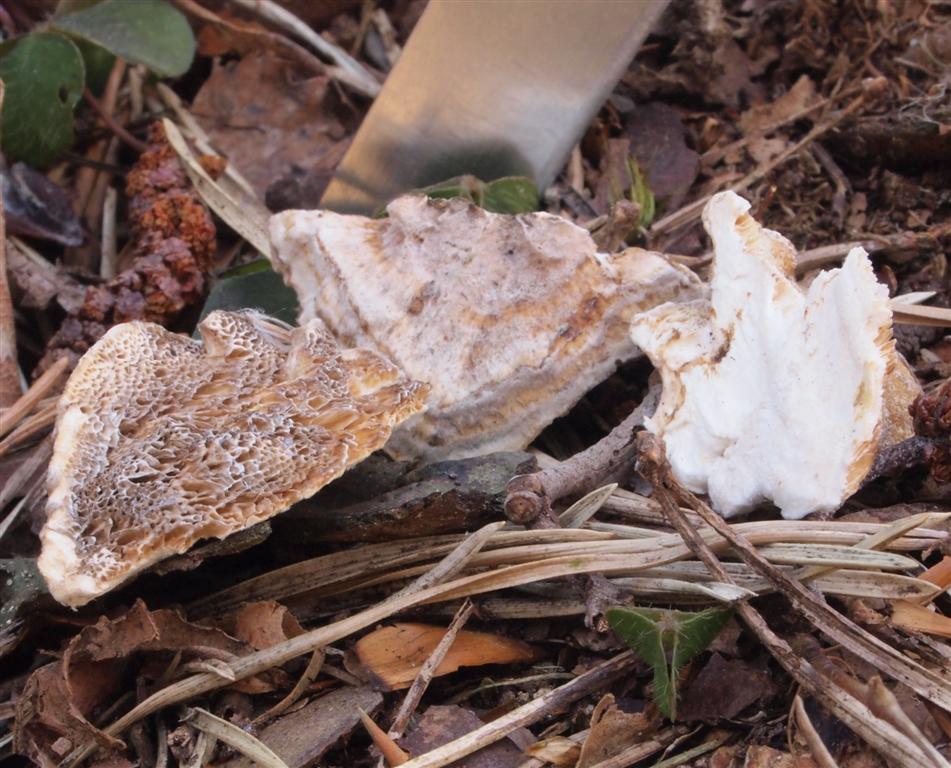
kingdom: Fungi
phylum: Basidiomycota
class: Agaricomycetes
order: Polyporales
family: Polyporaceae
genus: Trametes
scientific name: Trametes ochracea
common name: bæltet læderporesvamp
